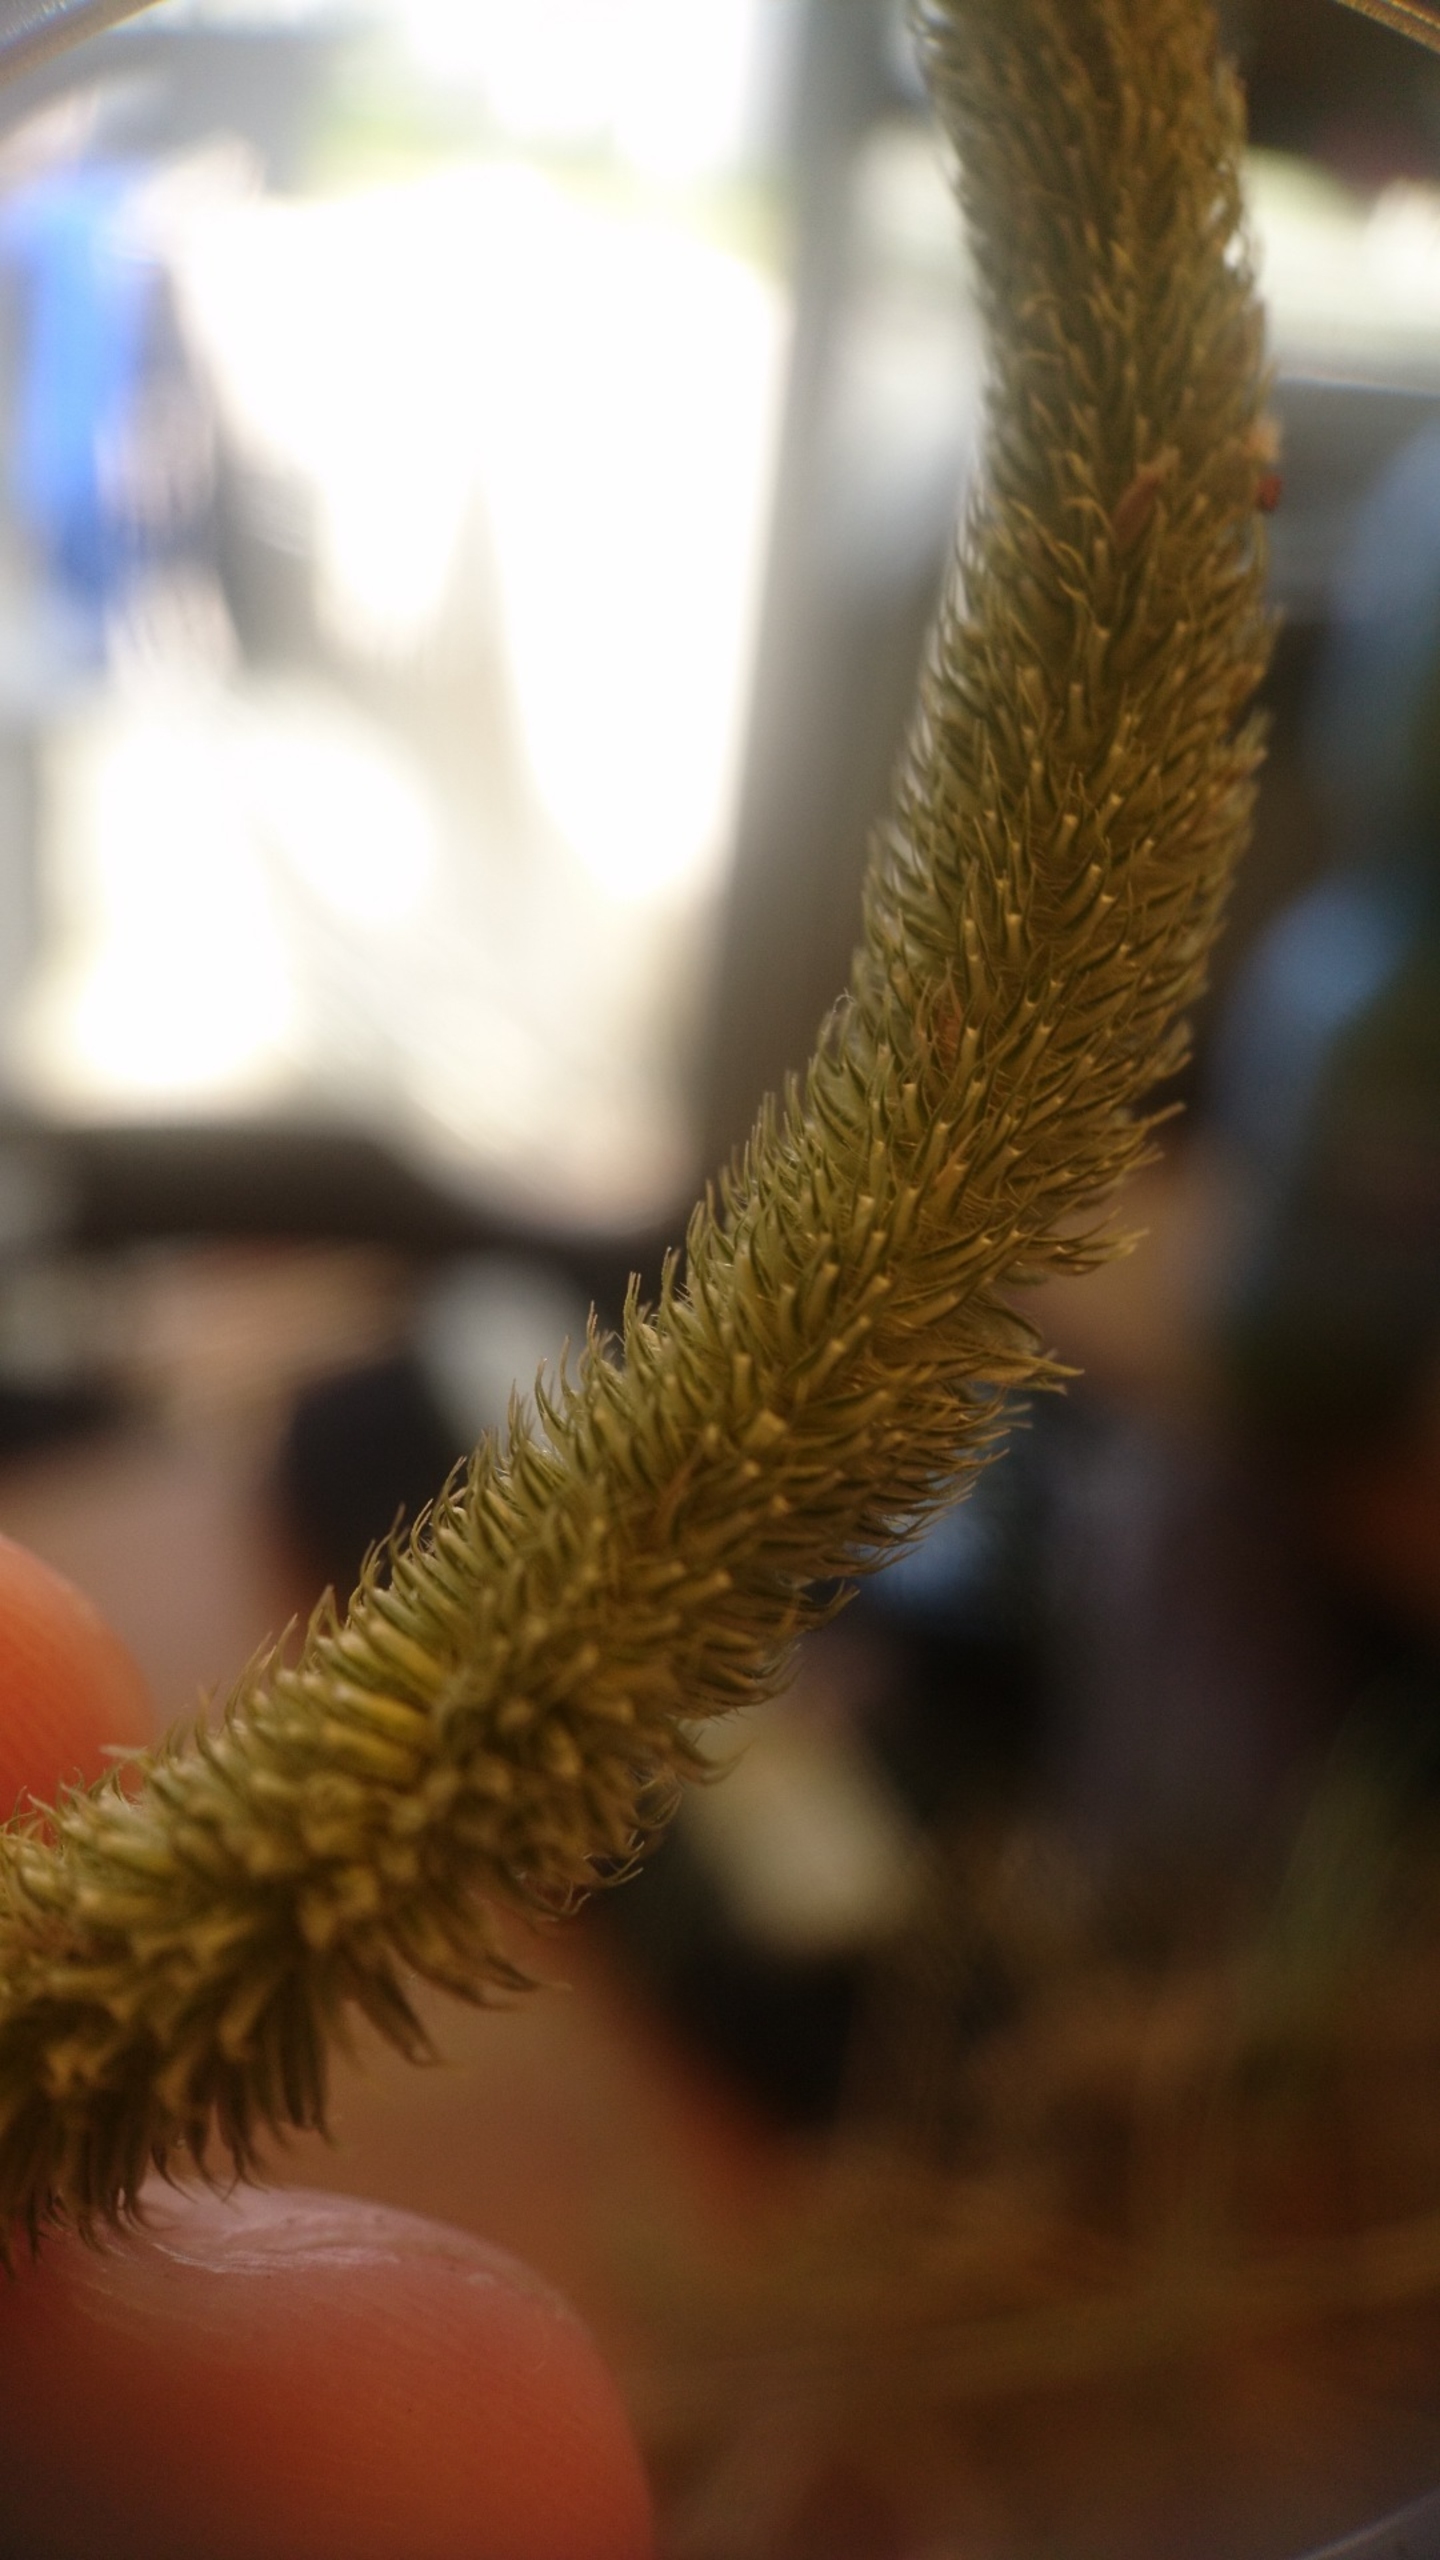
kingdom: Plantae
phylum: Tracheophyta
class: Liliopsida
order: Poales
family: Poaceae
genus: Phleum
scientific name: Phleum pratense
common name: Eng-rottehale
